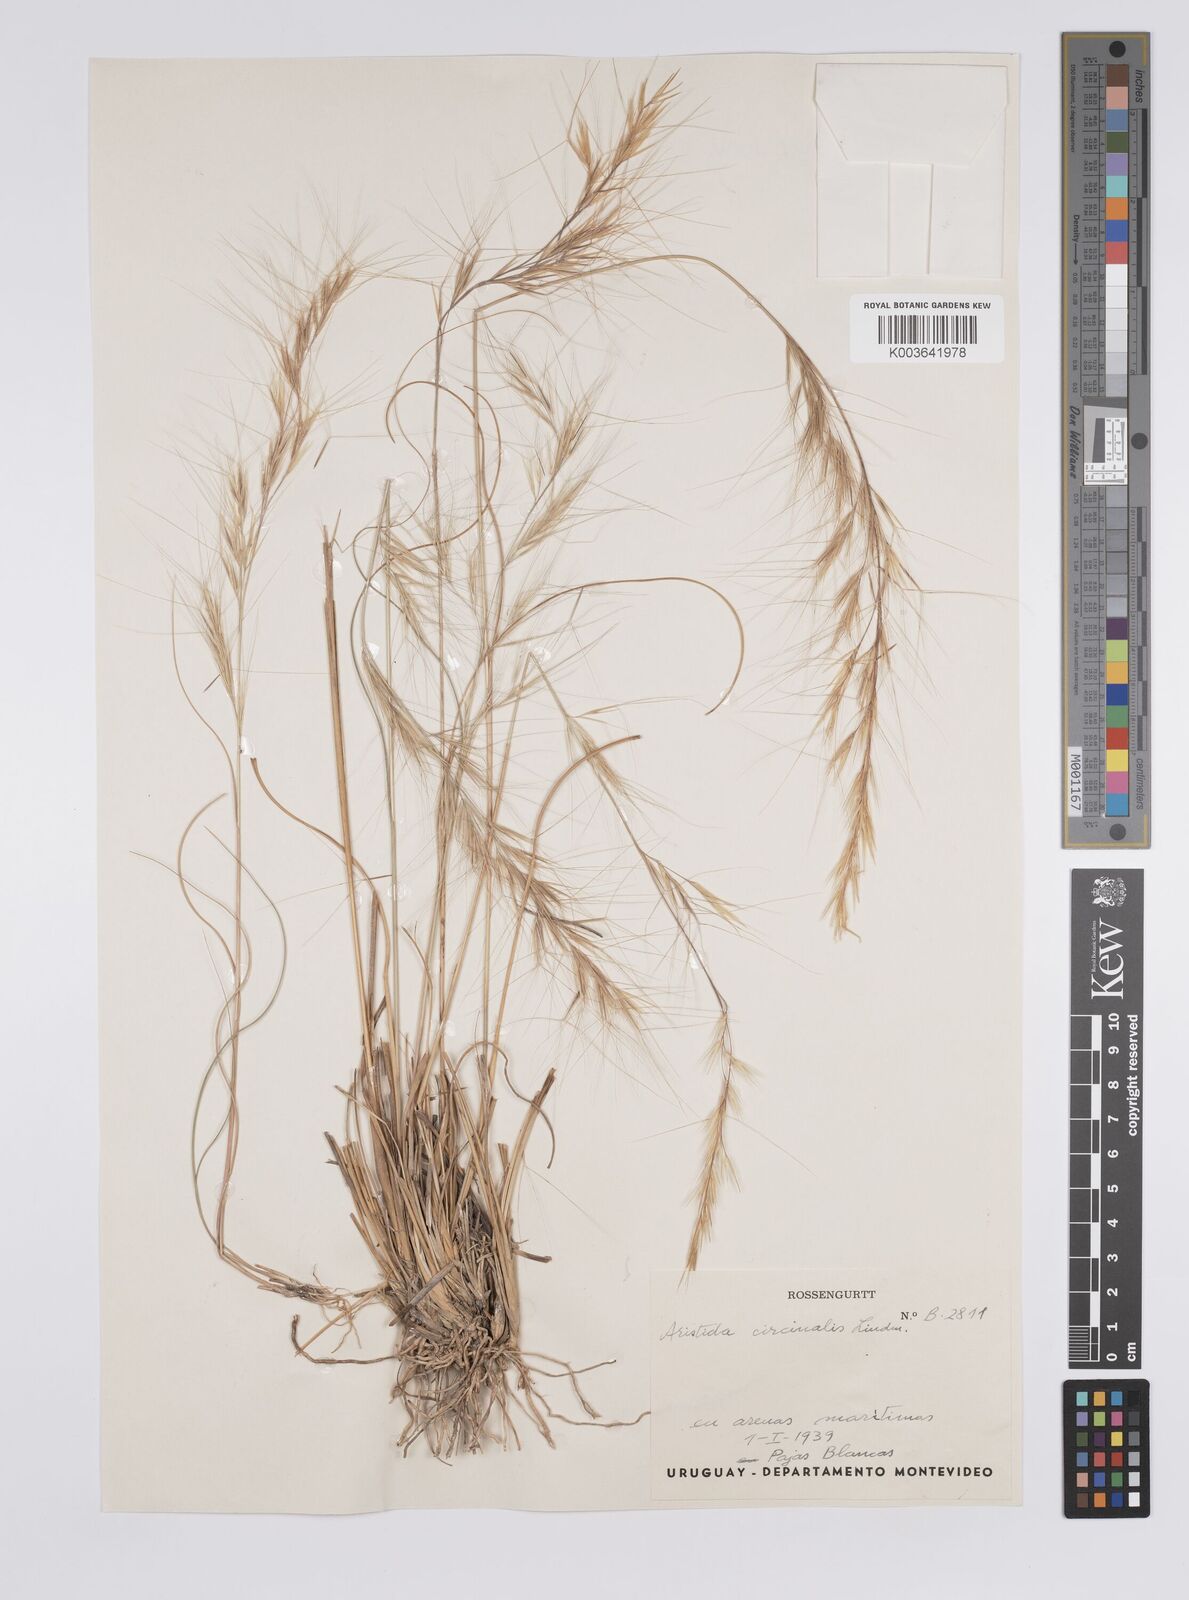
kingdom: Plantae
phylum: Tracheophyta
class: Liliopsida
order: Poales
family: Poaceae
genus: Aristida
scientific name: Aristida circinalis
